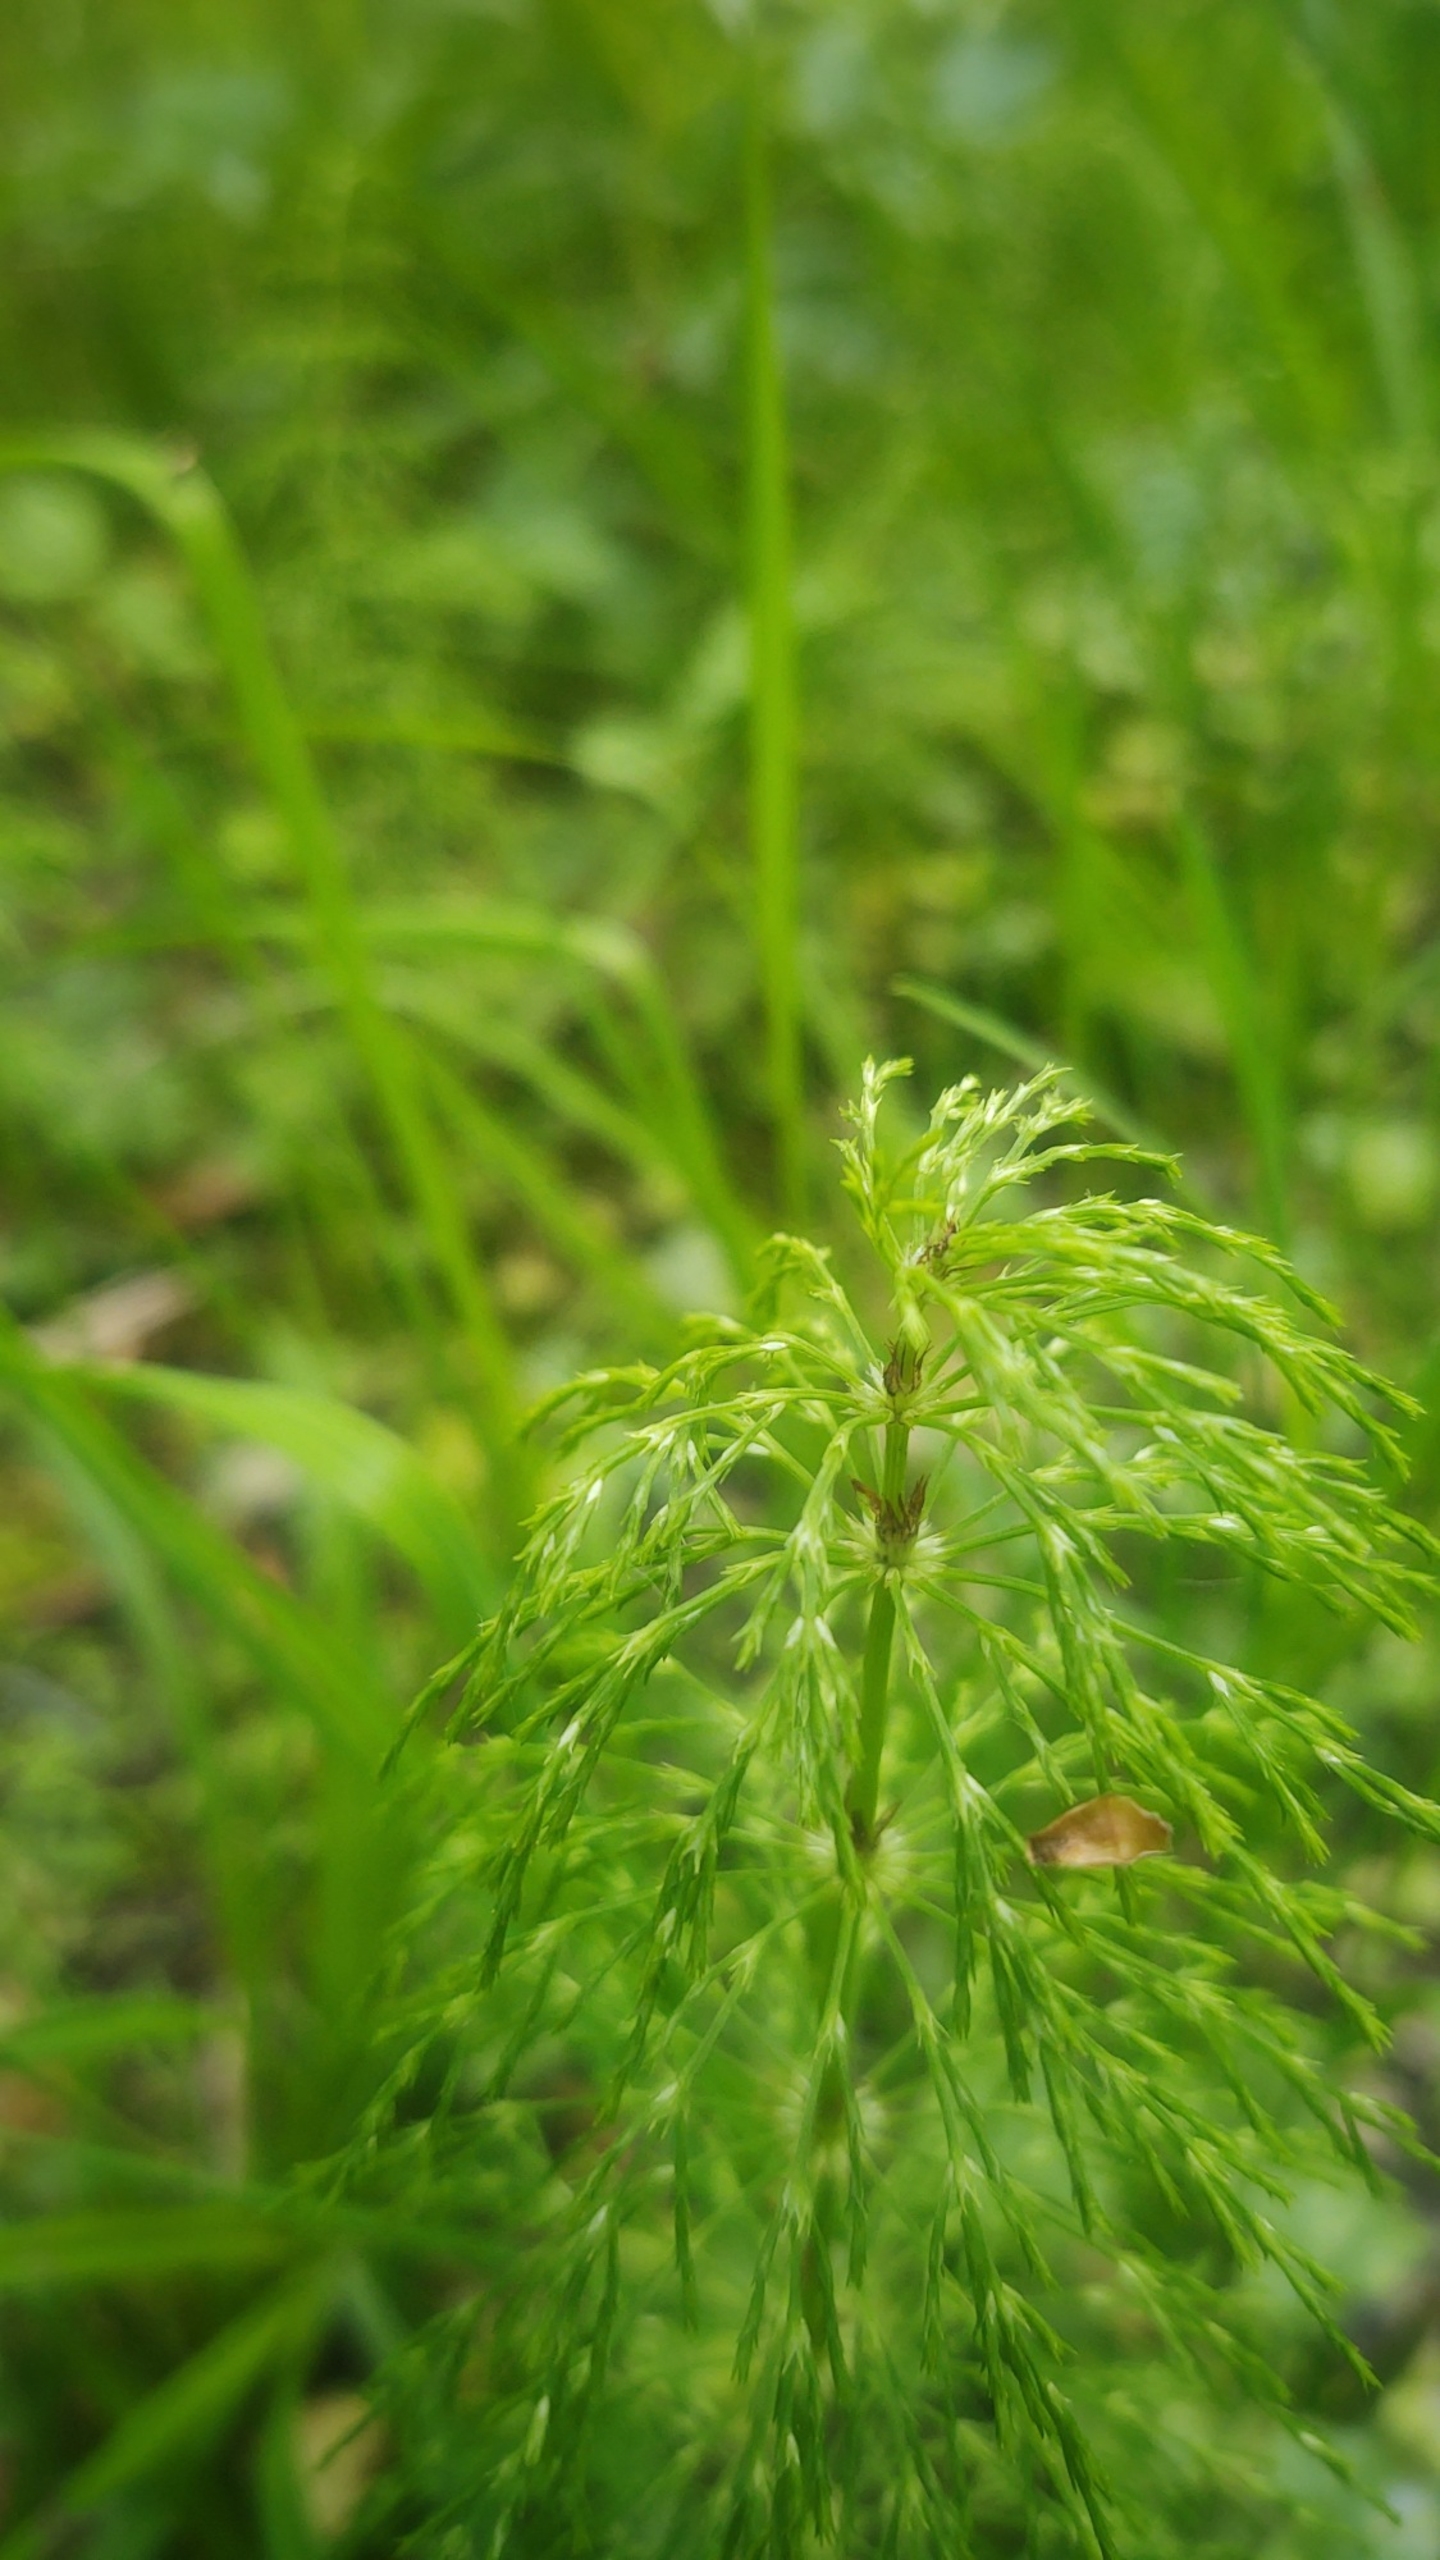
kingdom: Plantae
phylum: Tracheophyta
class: Polypodiopsida
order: Equisetales
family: Equisetaceae
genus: Equisetum
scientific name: Equisetum sylvaticum
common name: Skov-padderok
